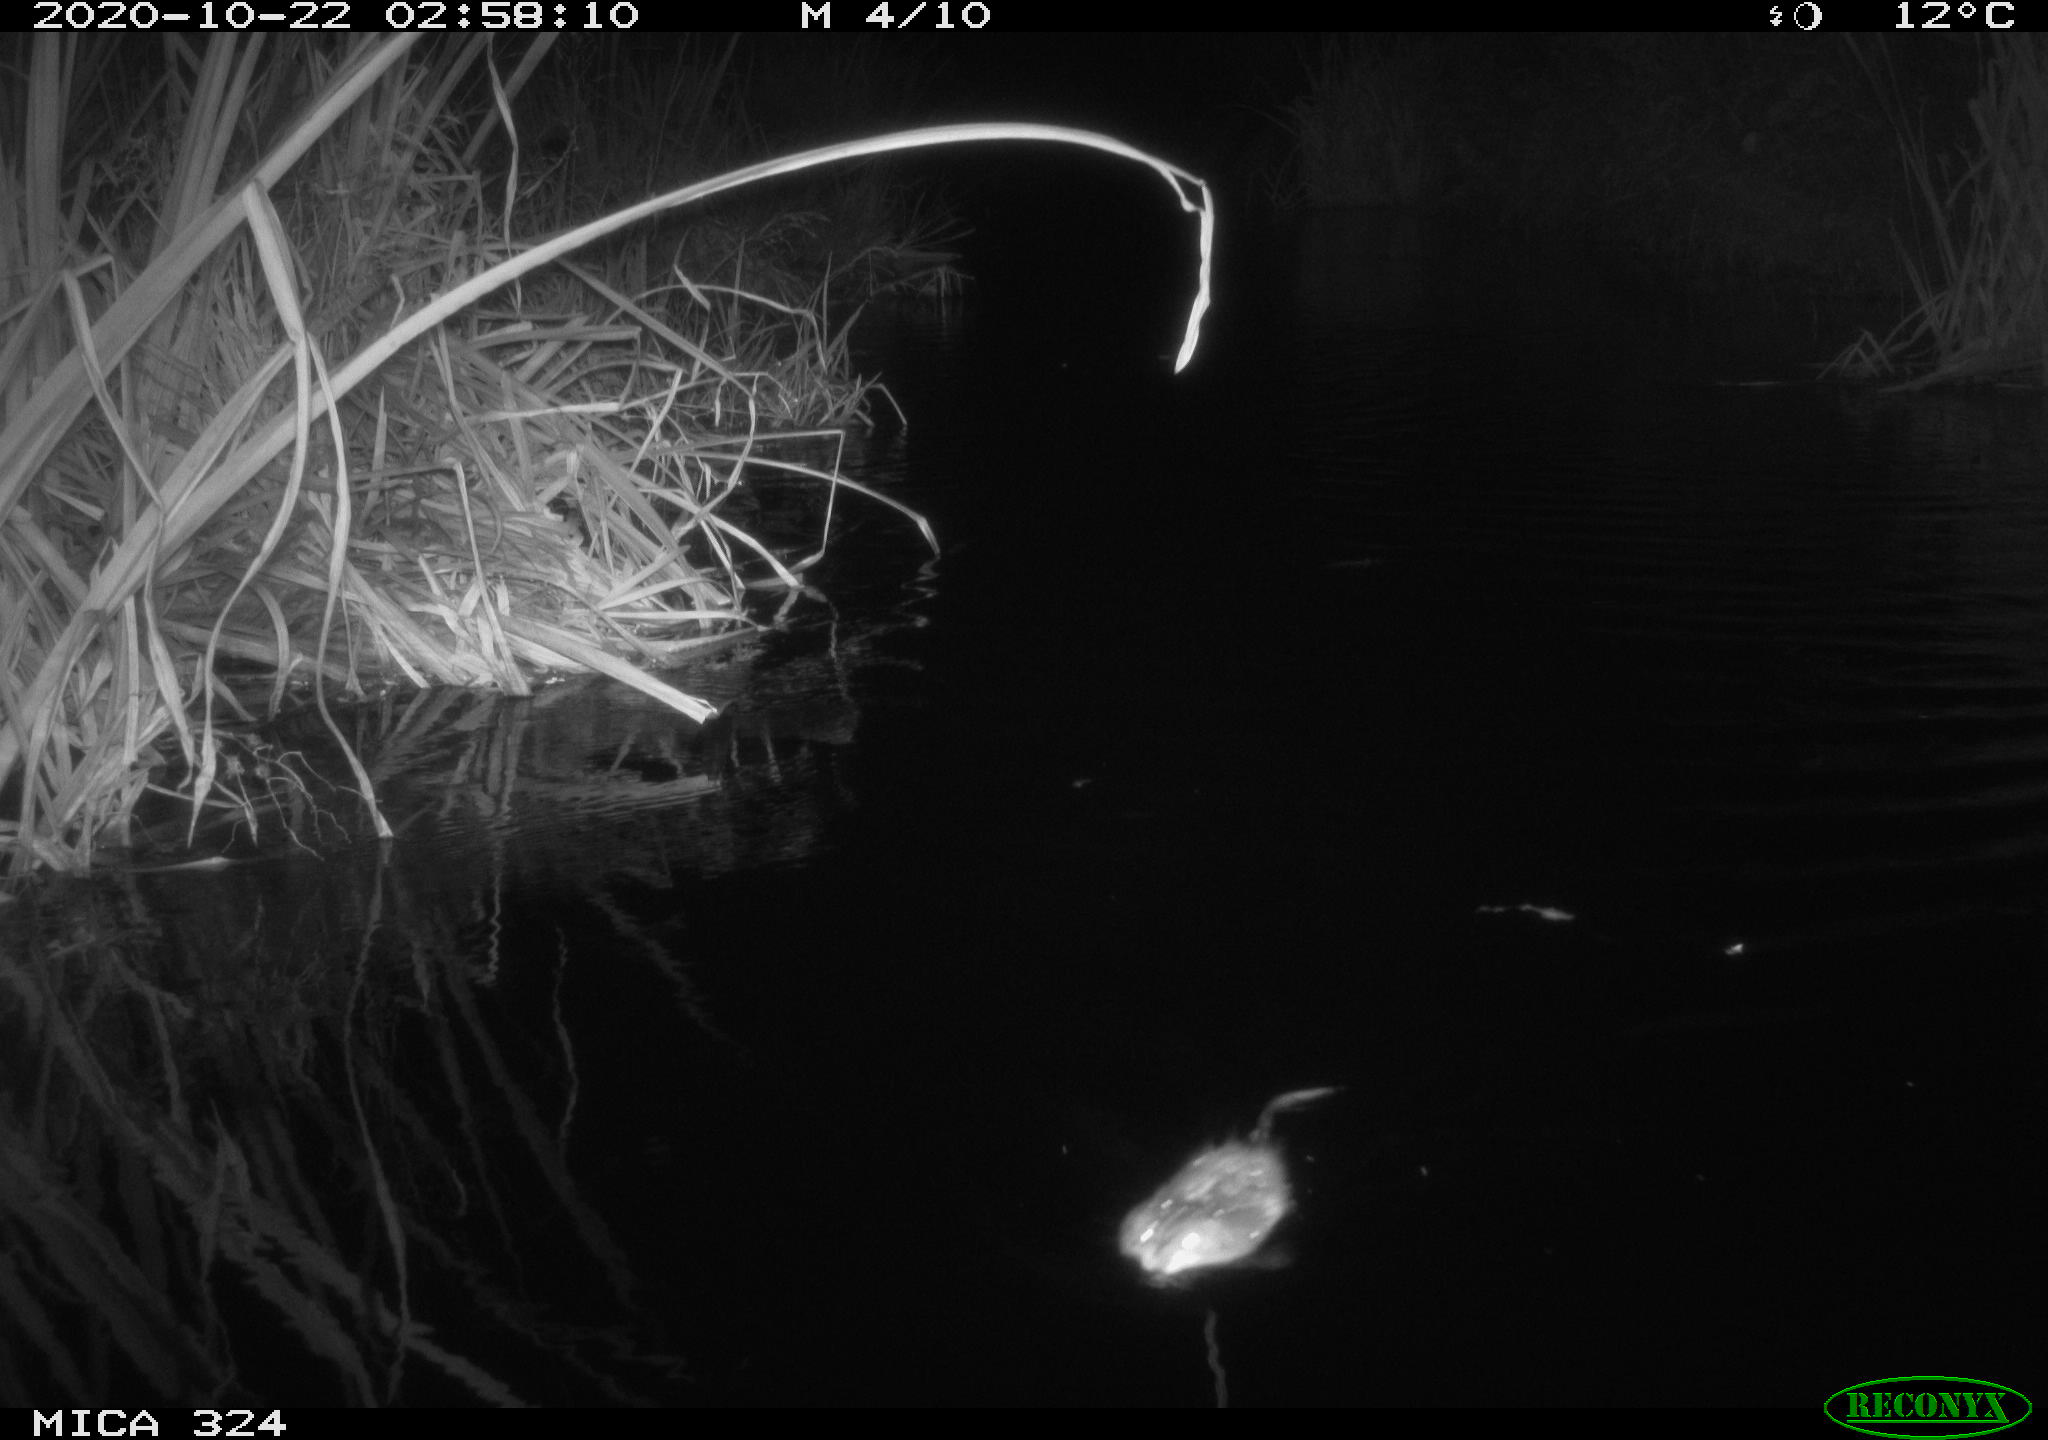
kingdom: Animalia
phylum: Chordata
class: Mammalia
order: Rodentia
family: Cricetidae
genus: Ondatra
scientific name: Ondatra zibethicus
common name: Muskrat
